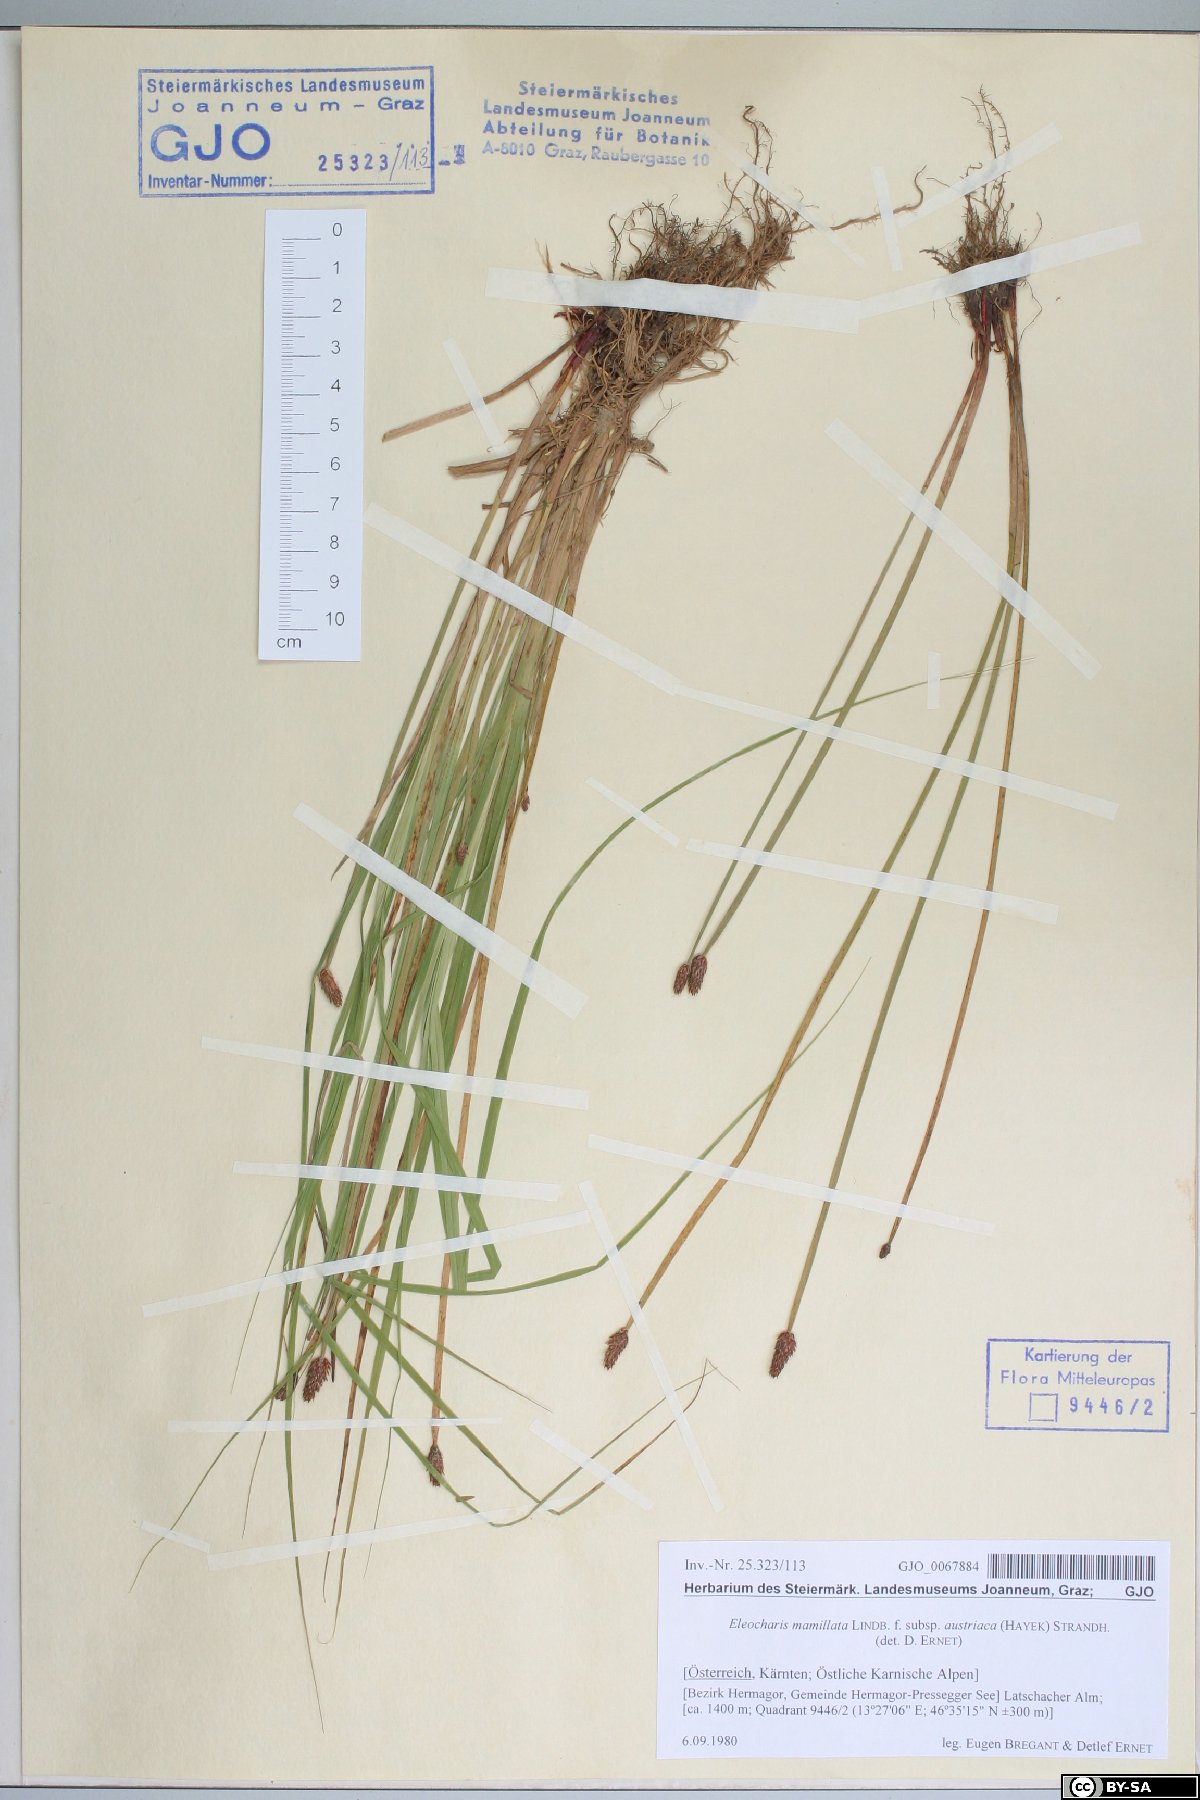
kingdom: Plantae
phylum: Tracheophyta
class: Liliopsida
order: Poales
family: Cyperaceae
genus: Eleocharis
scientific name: Eleocharis mamillata
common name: Northern spike-rush
